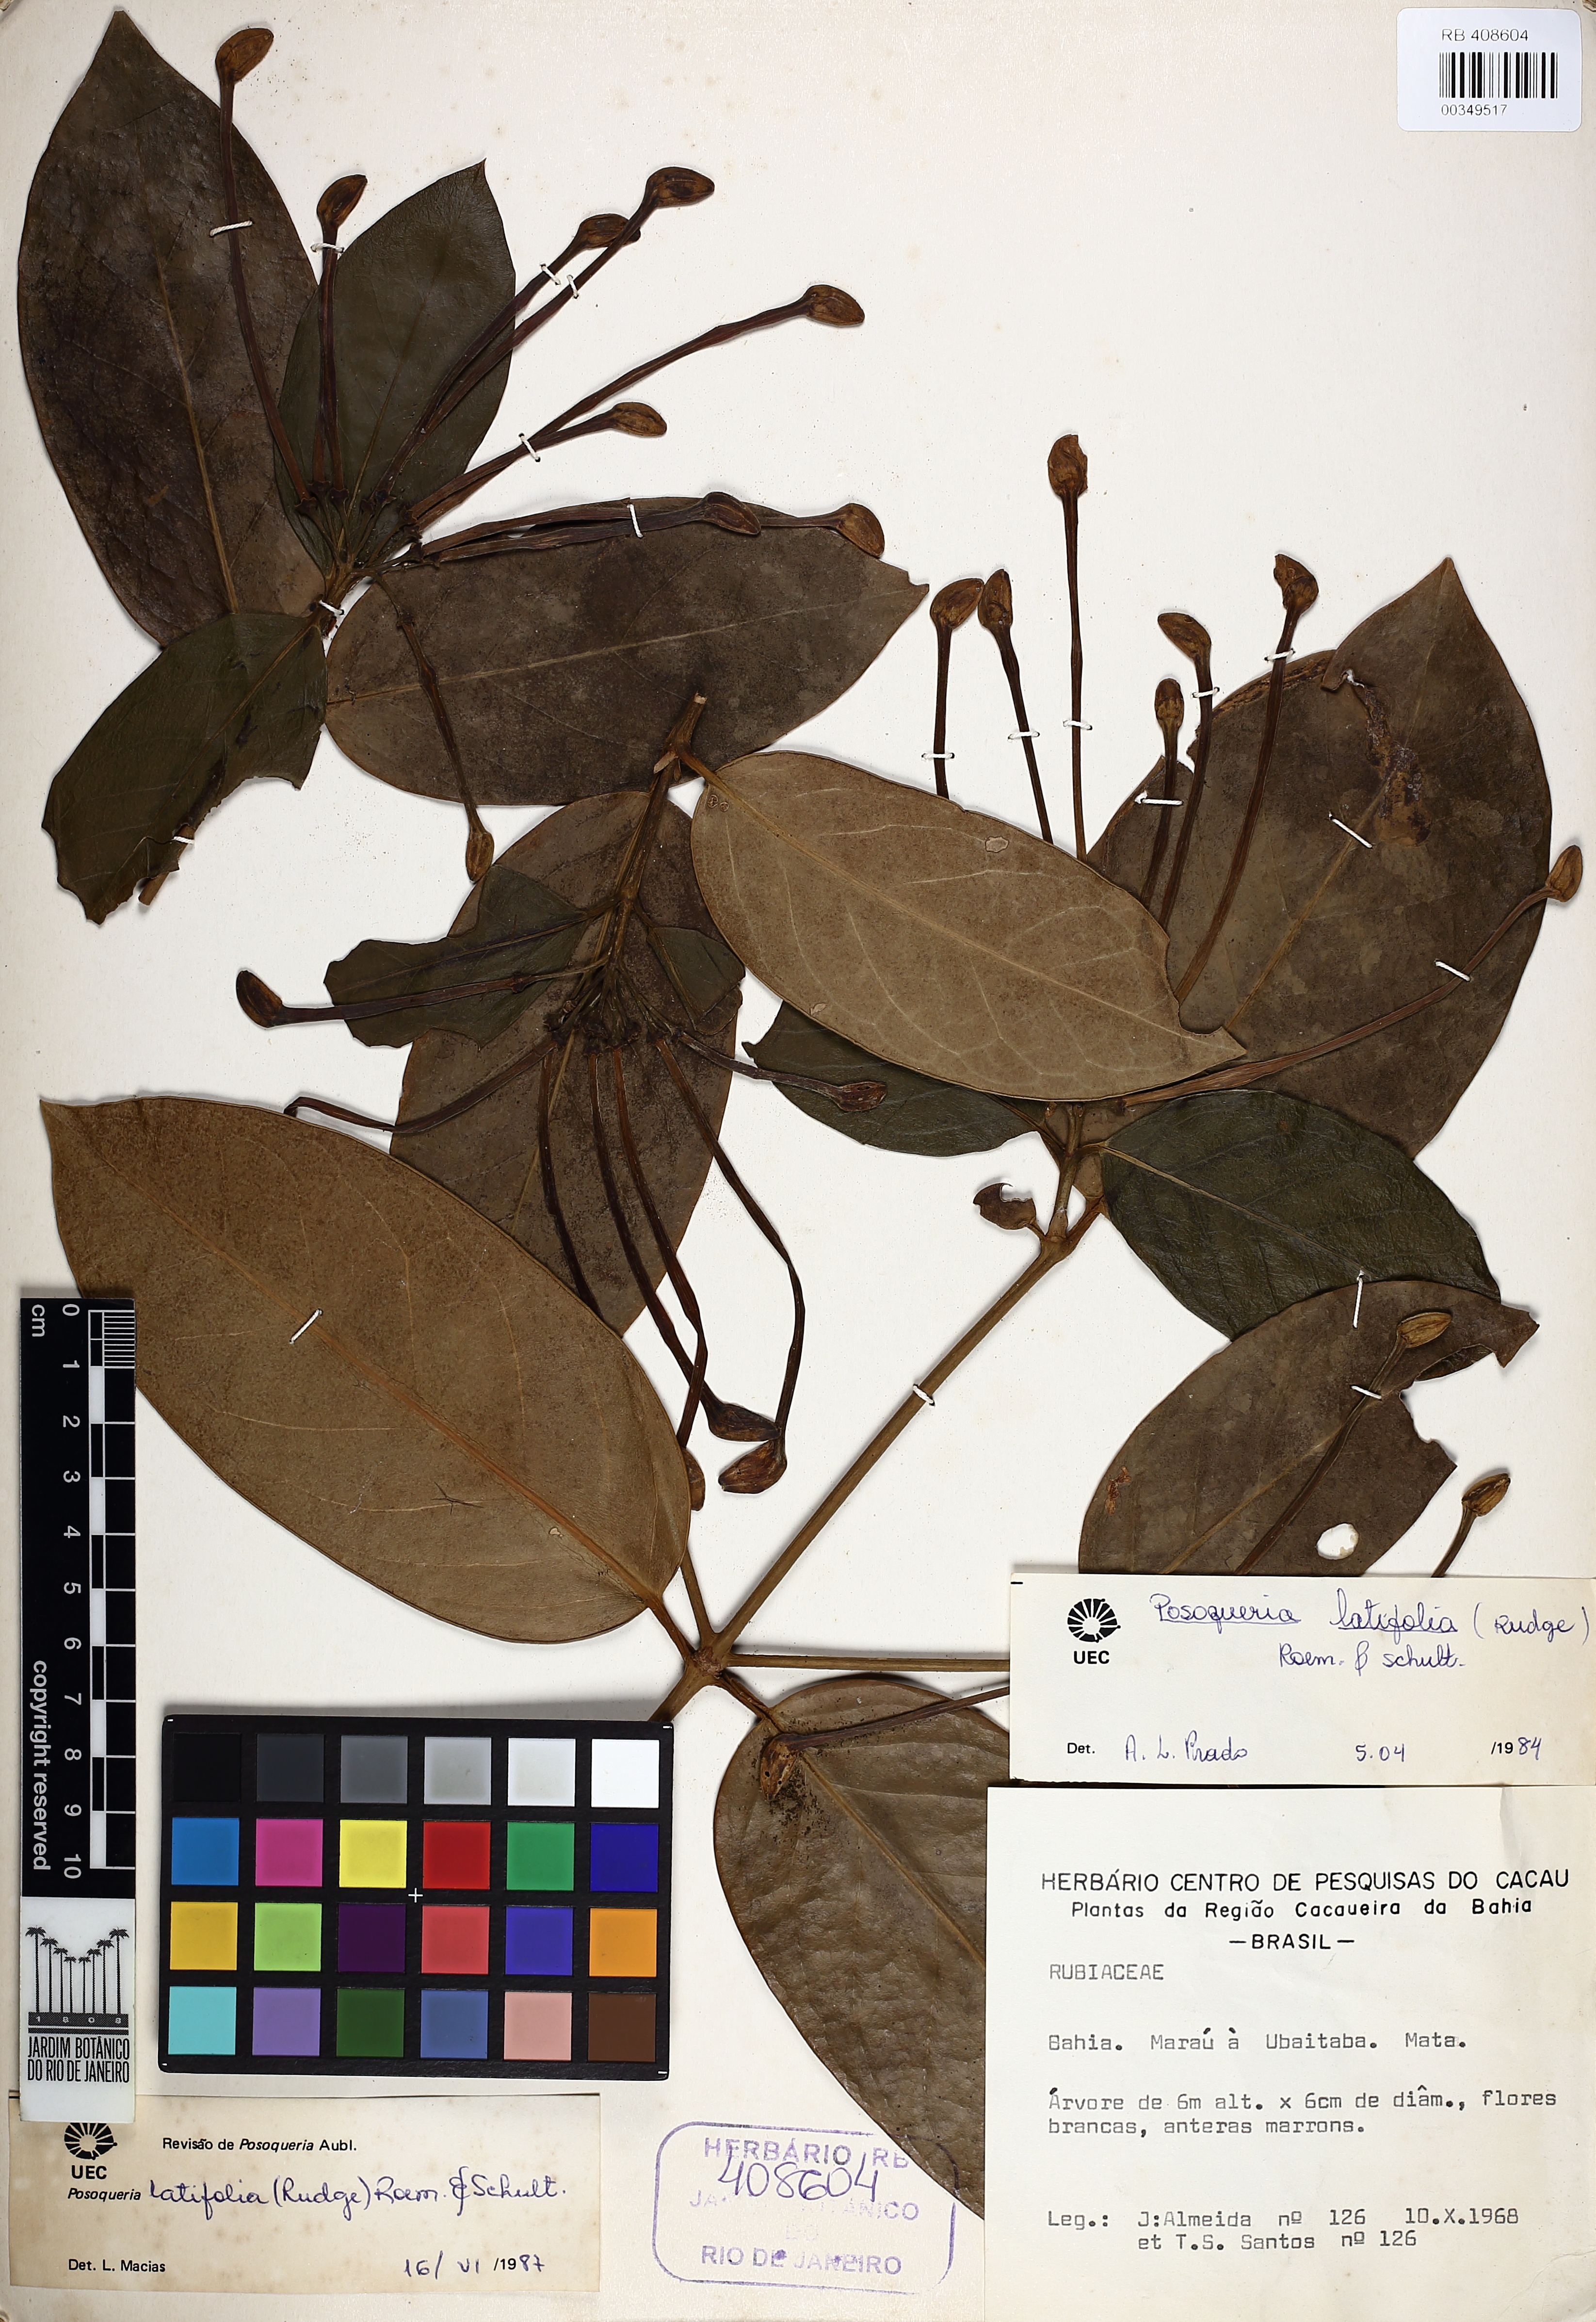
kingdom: Plantae
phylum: Tracheophyta
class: Magnoliopsida
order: Gentianales
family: Rubiaceae
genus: Posoqueria
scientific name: Posoqueria latifolia
